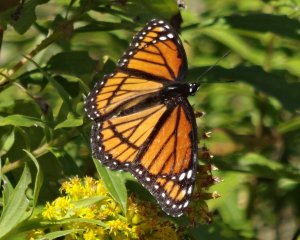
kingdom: Animalia
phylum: Arthropoda
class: Insecta
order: Lepidoptera
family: Nymphalidae
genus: Limenitis
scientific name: Limenitis archippus
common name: Viceroy
